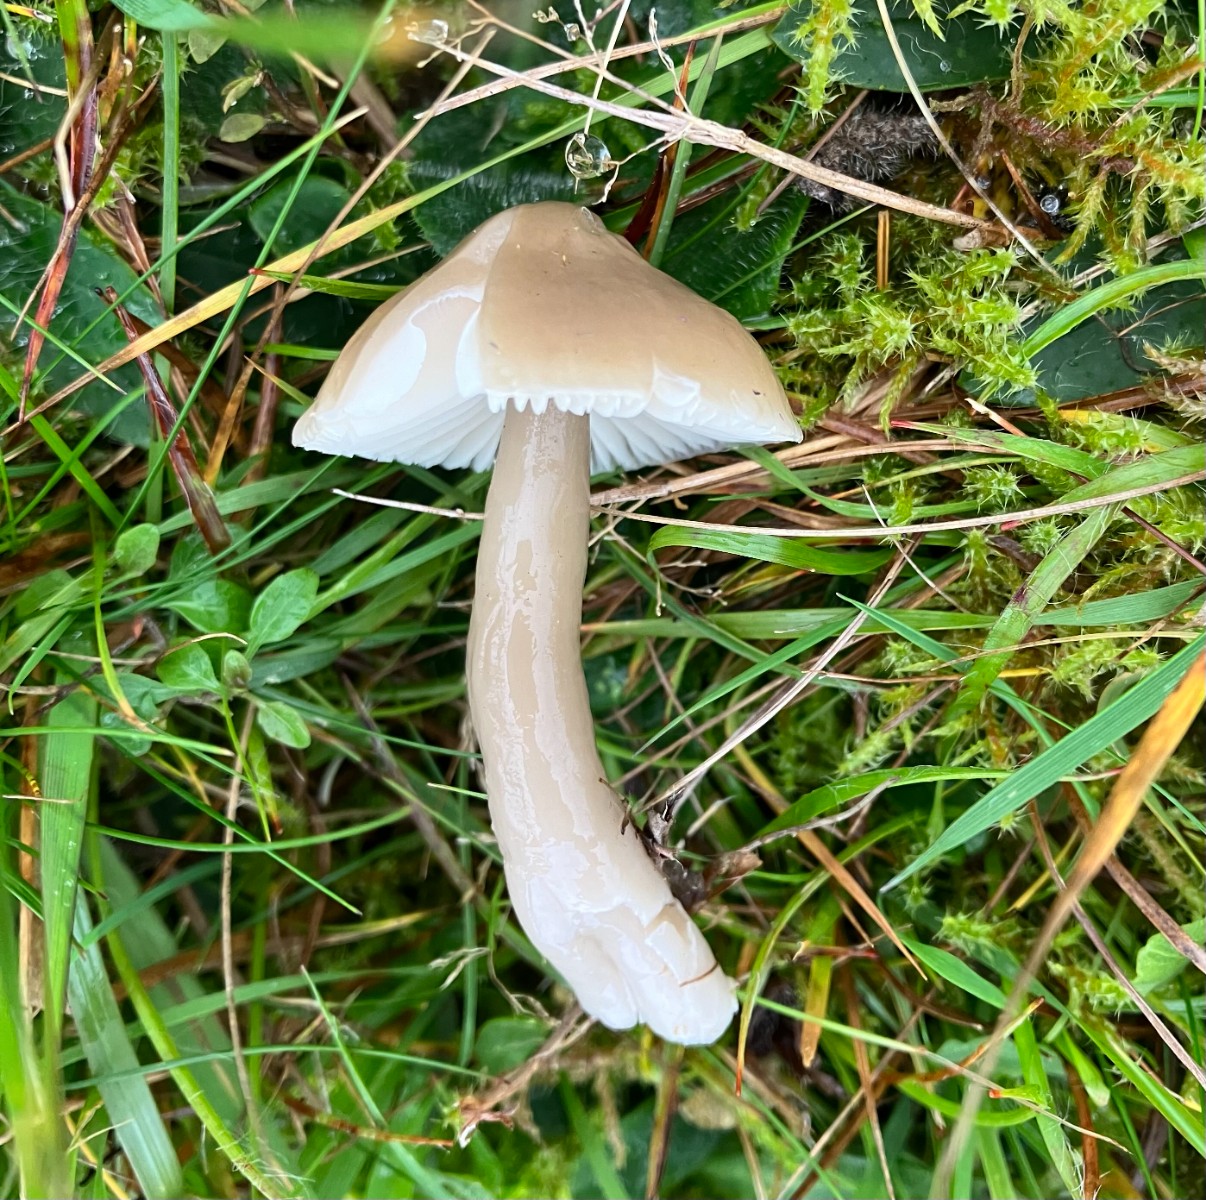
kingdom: Fungi
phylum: Basidiomycota
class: Agaricomycetes
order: Agaricales
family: Hygrophoraceae
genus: Gliophorus
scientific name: Gliophorus irrigatus
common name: slimet vokshat
